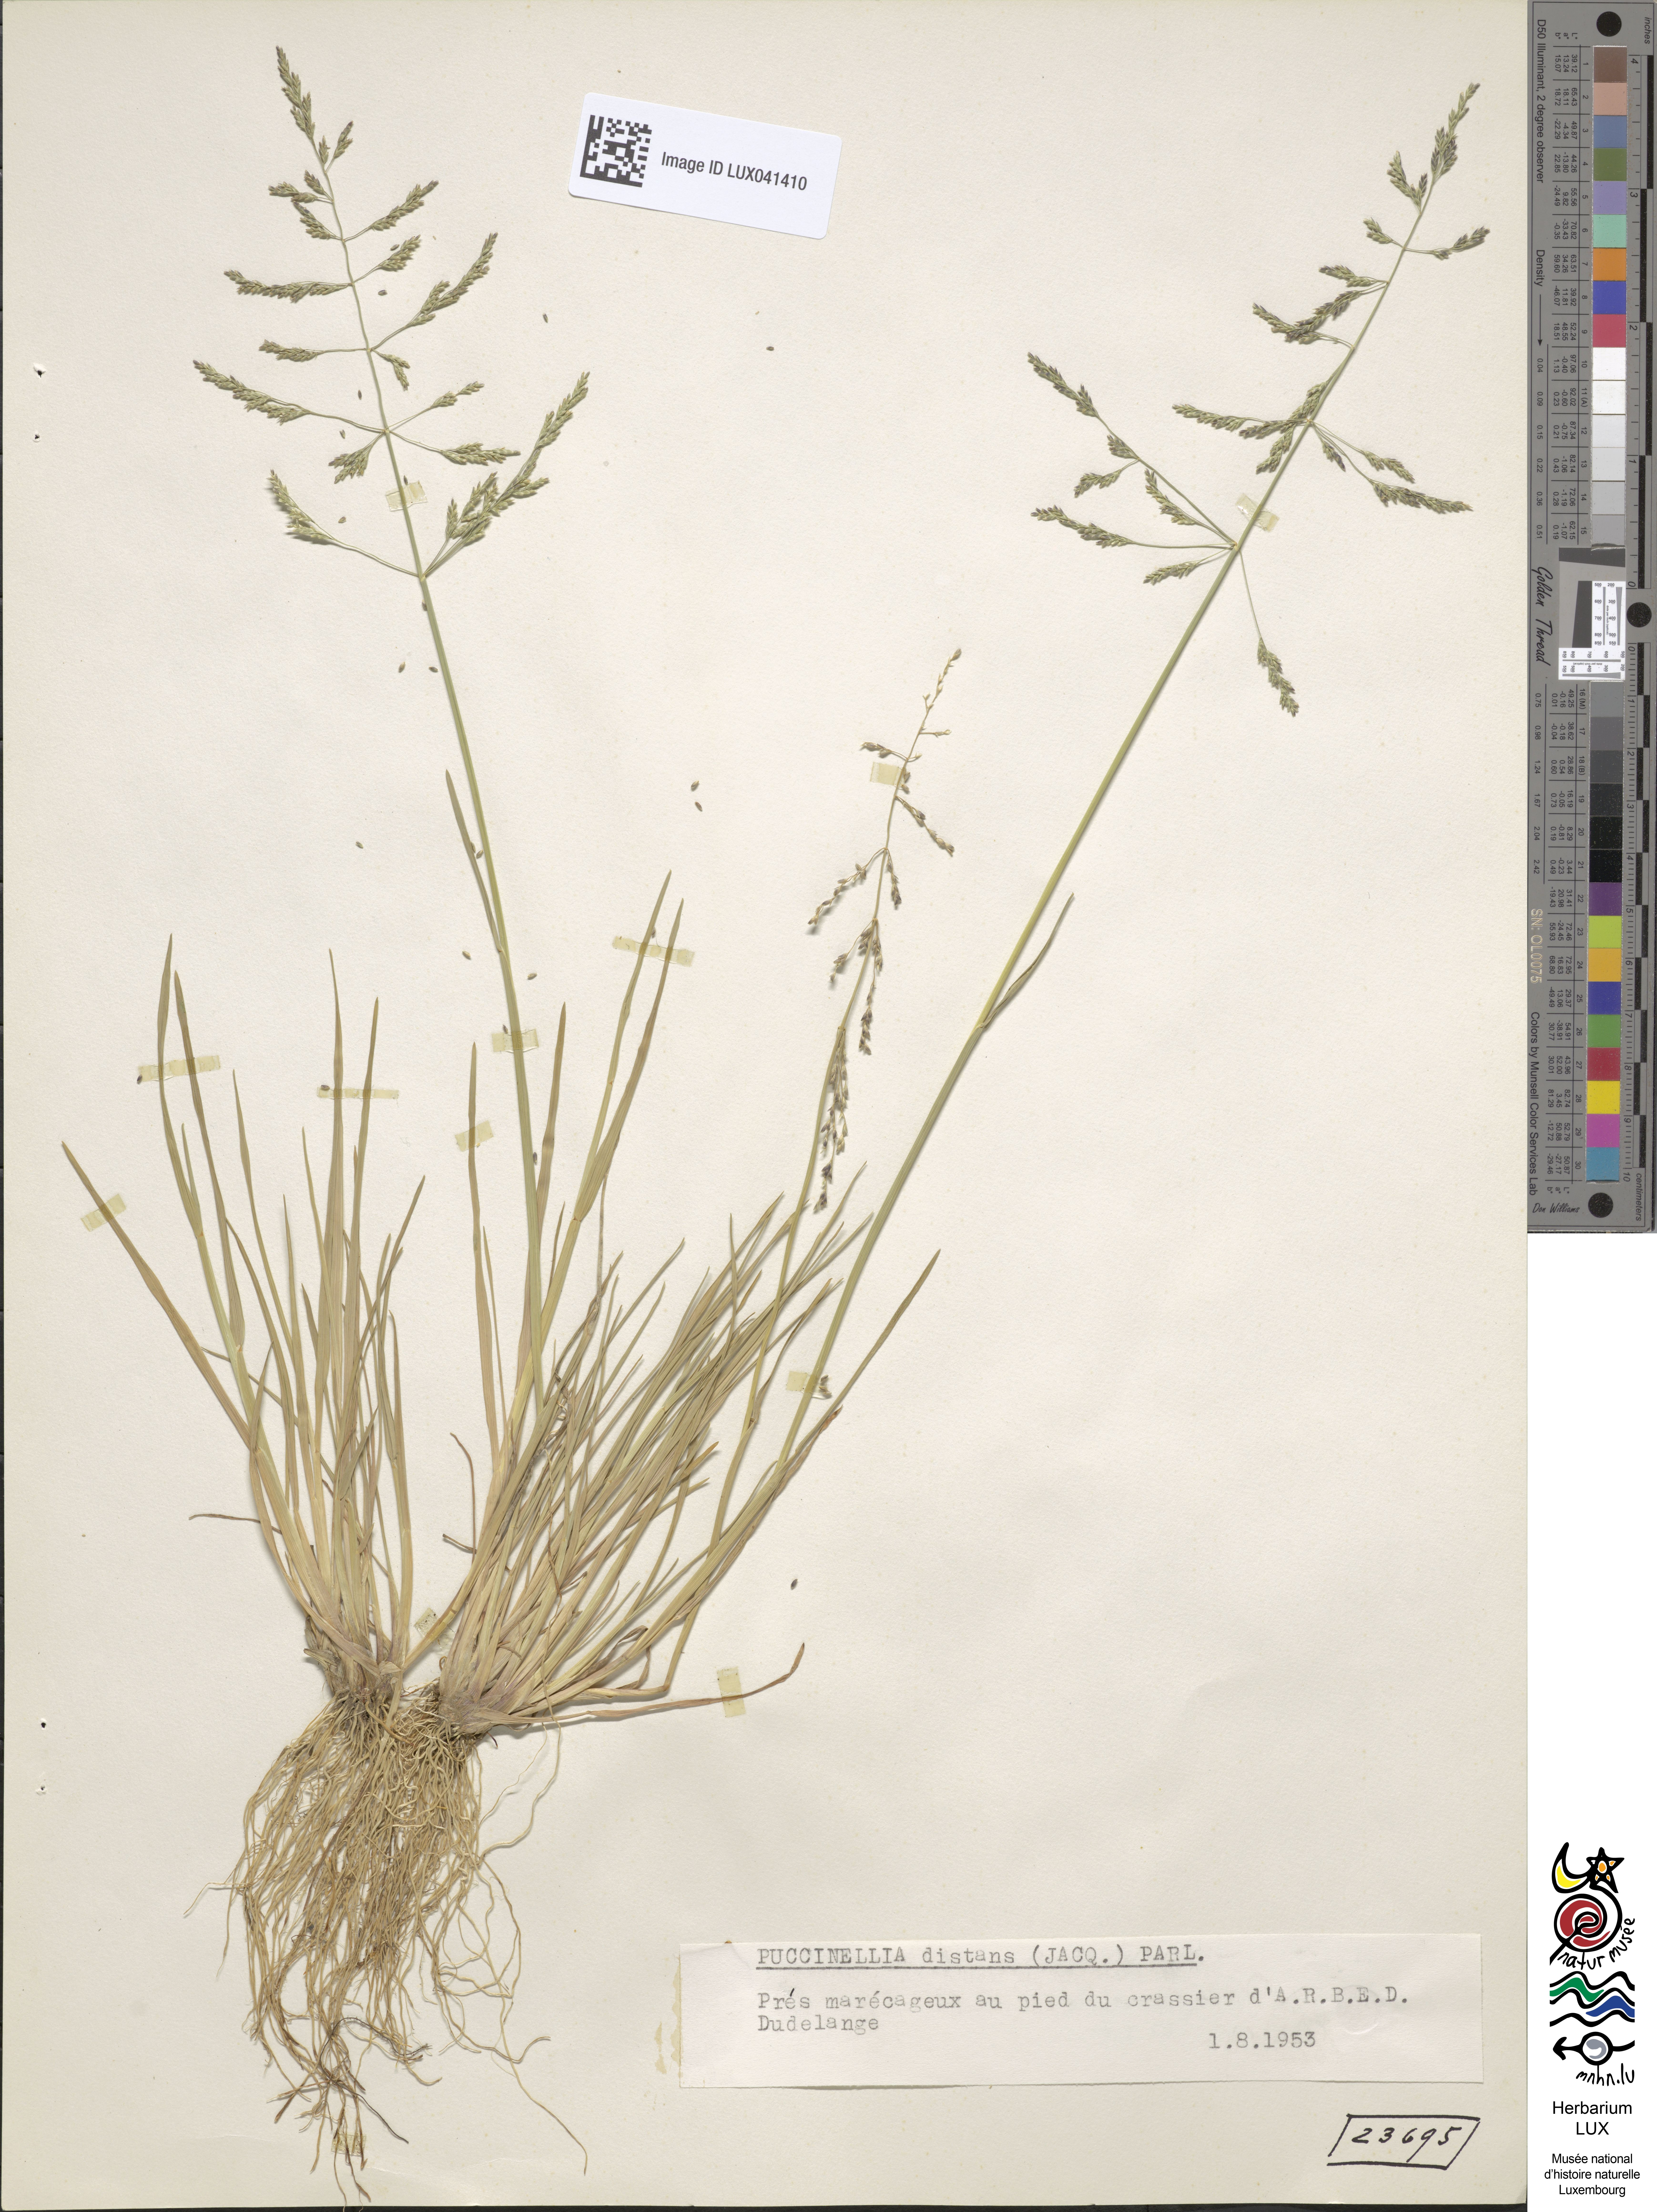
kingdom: Plantae
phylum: Tracheophyta
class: Liliopsida
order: Poales
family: Poaceae
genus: Puccinellia
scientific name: Puccinellia distans
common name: Weeping alkaligrass
